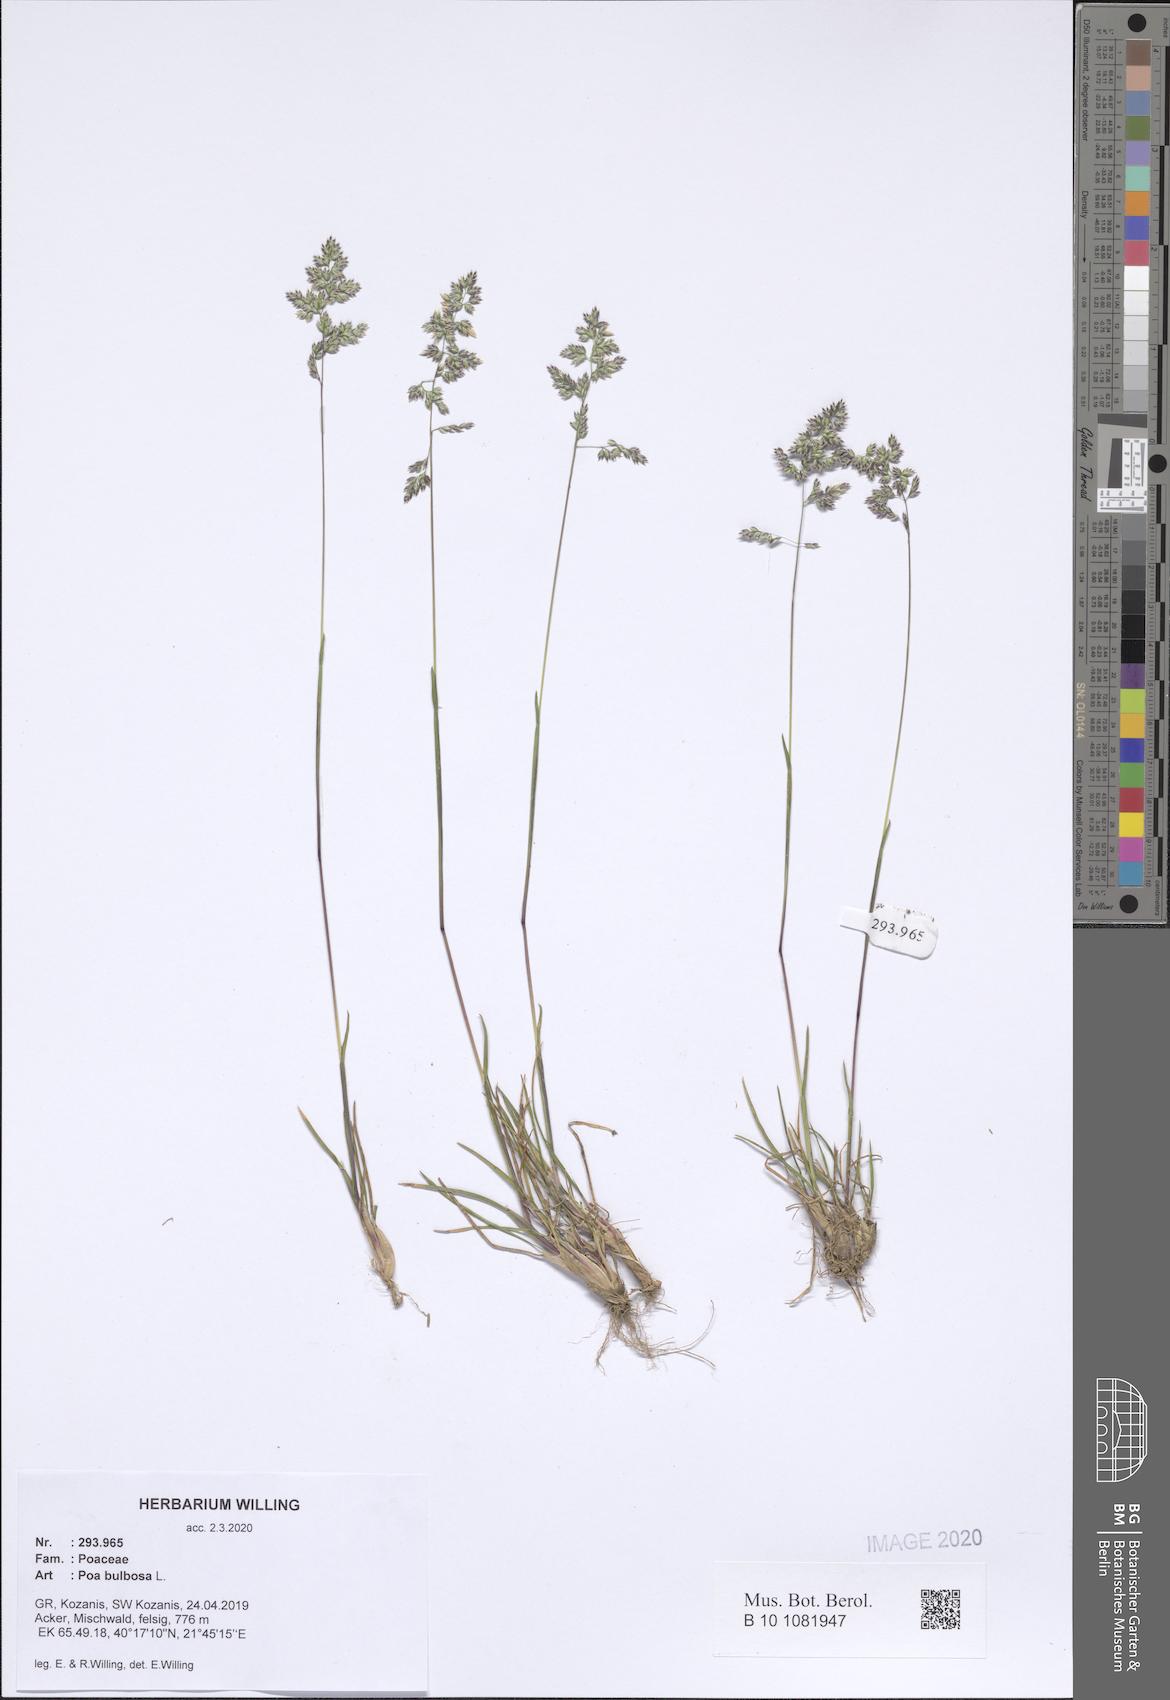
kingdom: Plantae
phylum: Tracheophyta
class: Liliopsida
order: Poales
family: Poaceae
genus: Poa
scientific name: Poa bulbosa
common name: Bulbous bluegrass
